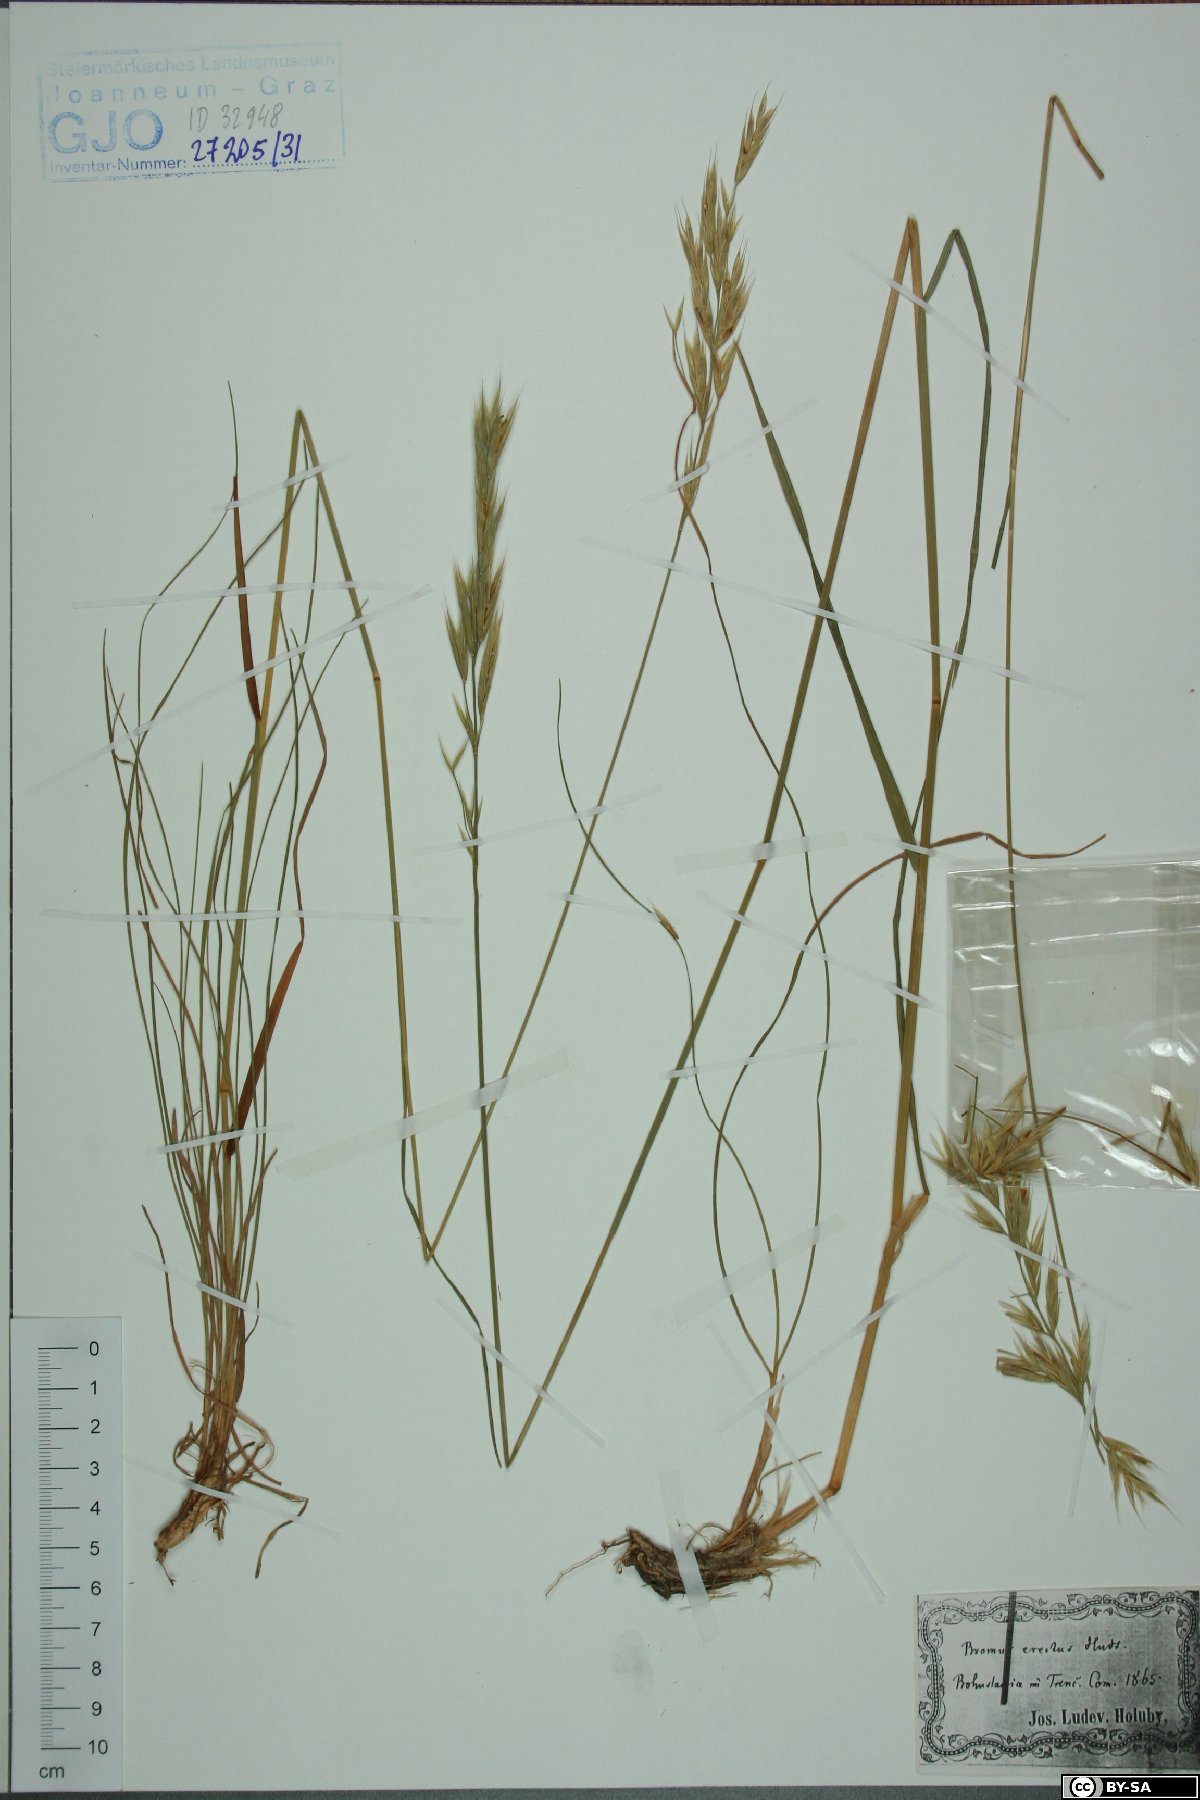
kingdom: Plantae
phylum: Tracheophyta
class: Liliopsida
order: Poales
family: Poaceae
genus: Bromus
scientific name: Bromus erectus
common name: Erect brome
